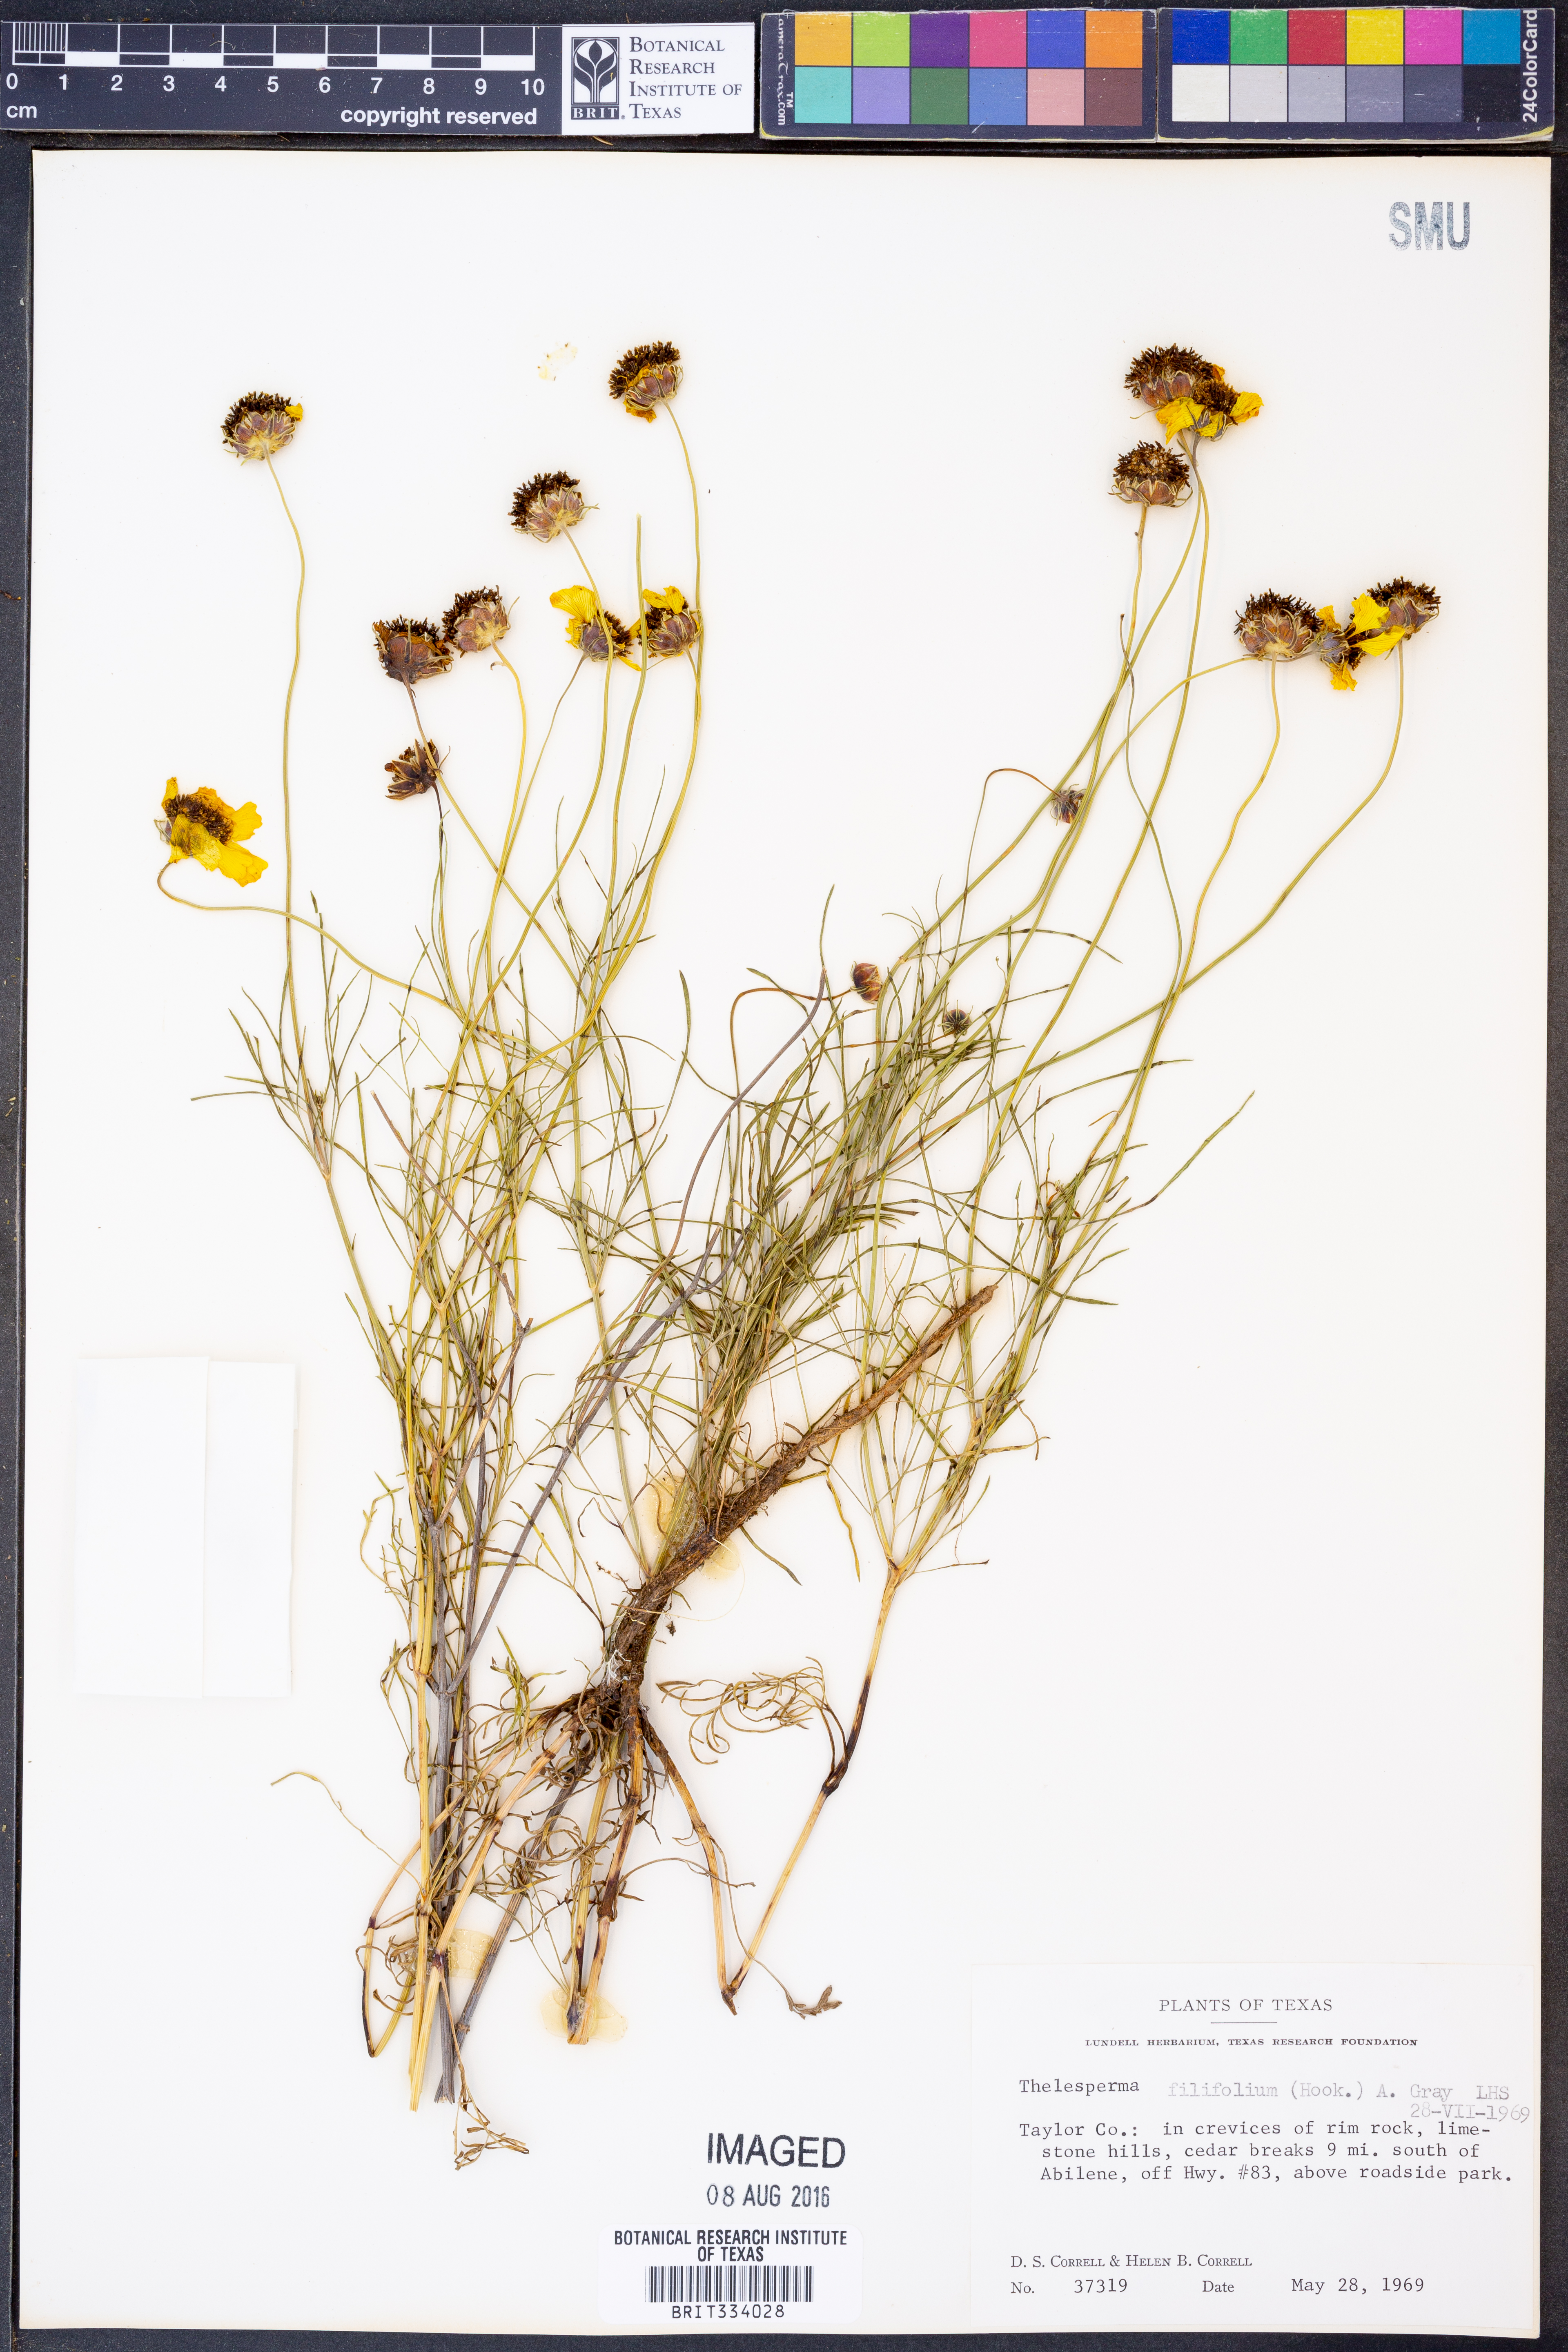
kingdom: Plantae
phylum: Tracheophyta
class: Magnoliopsida
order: Asterales
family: Asteraceae
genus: Thelesperma
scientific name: Thelesperma filifolium
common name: Stiff greenthread
